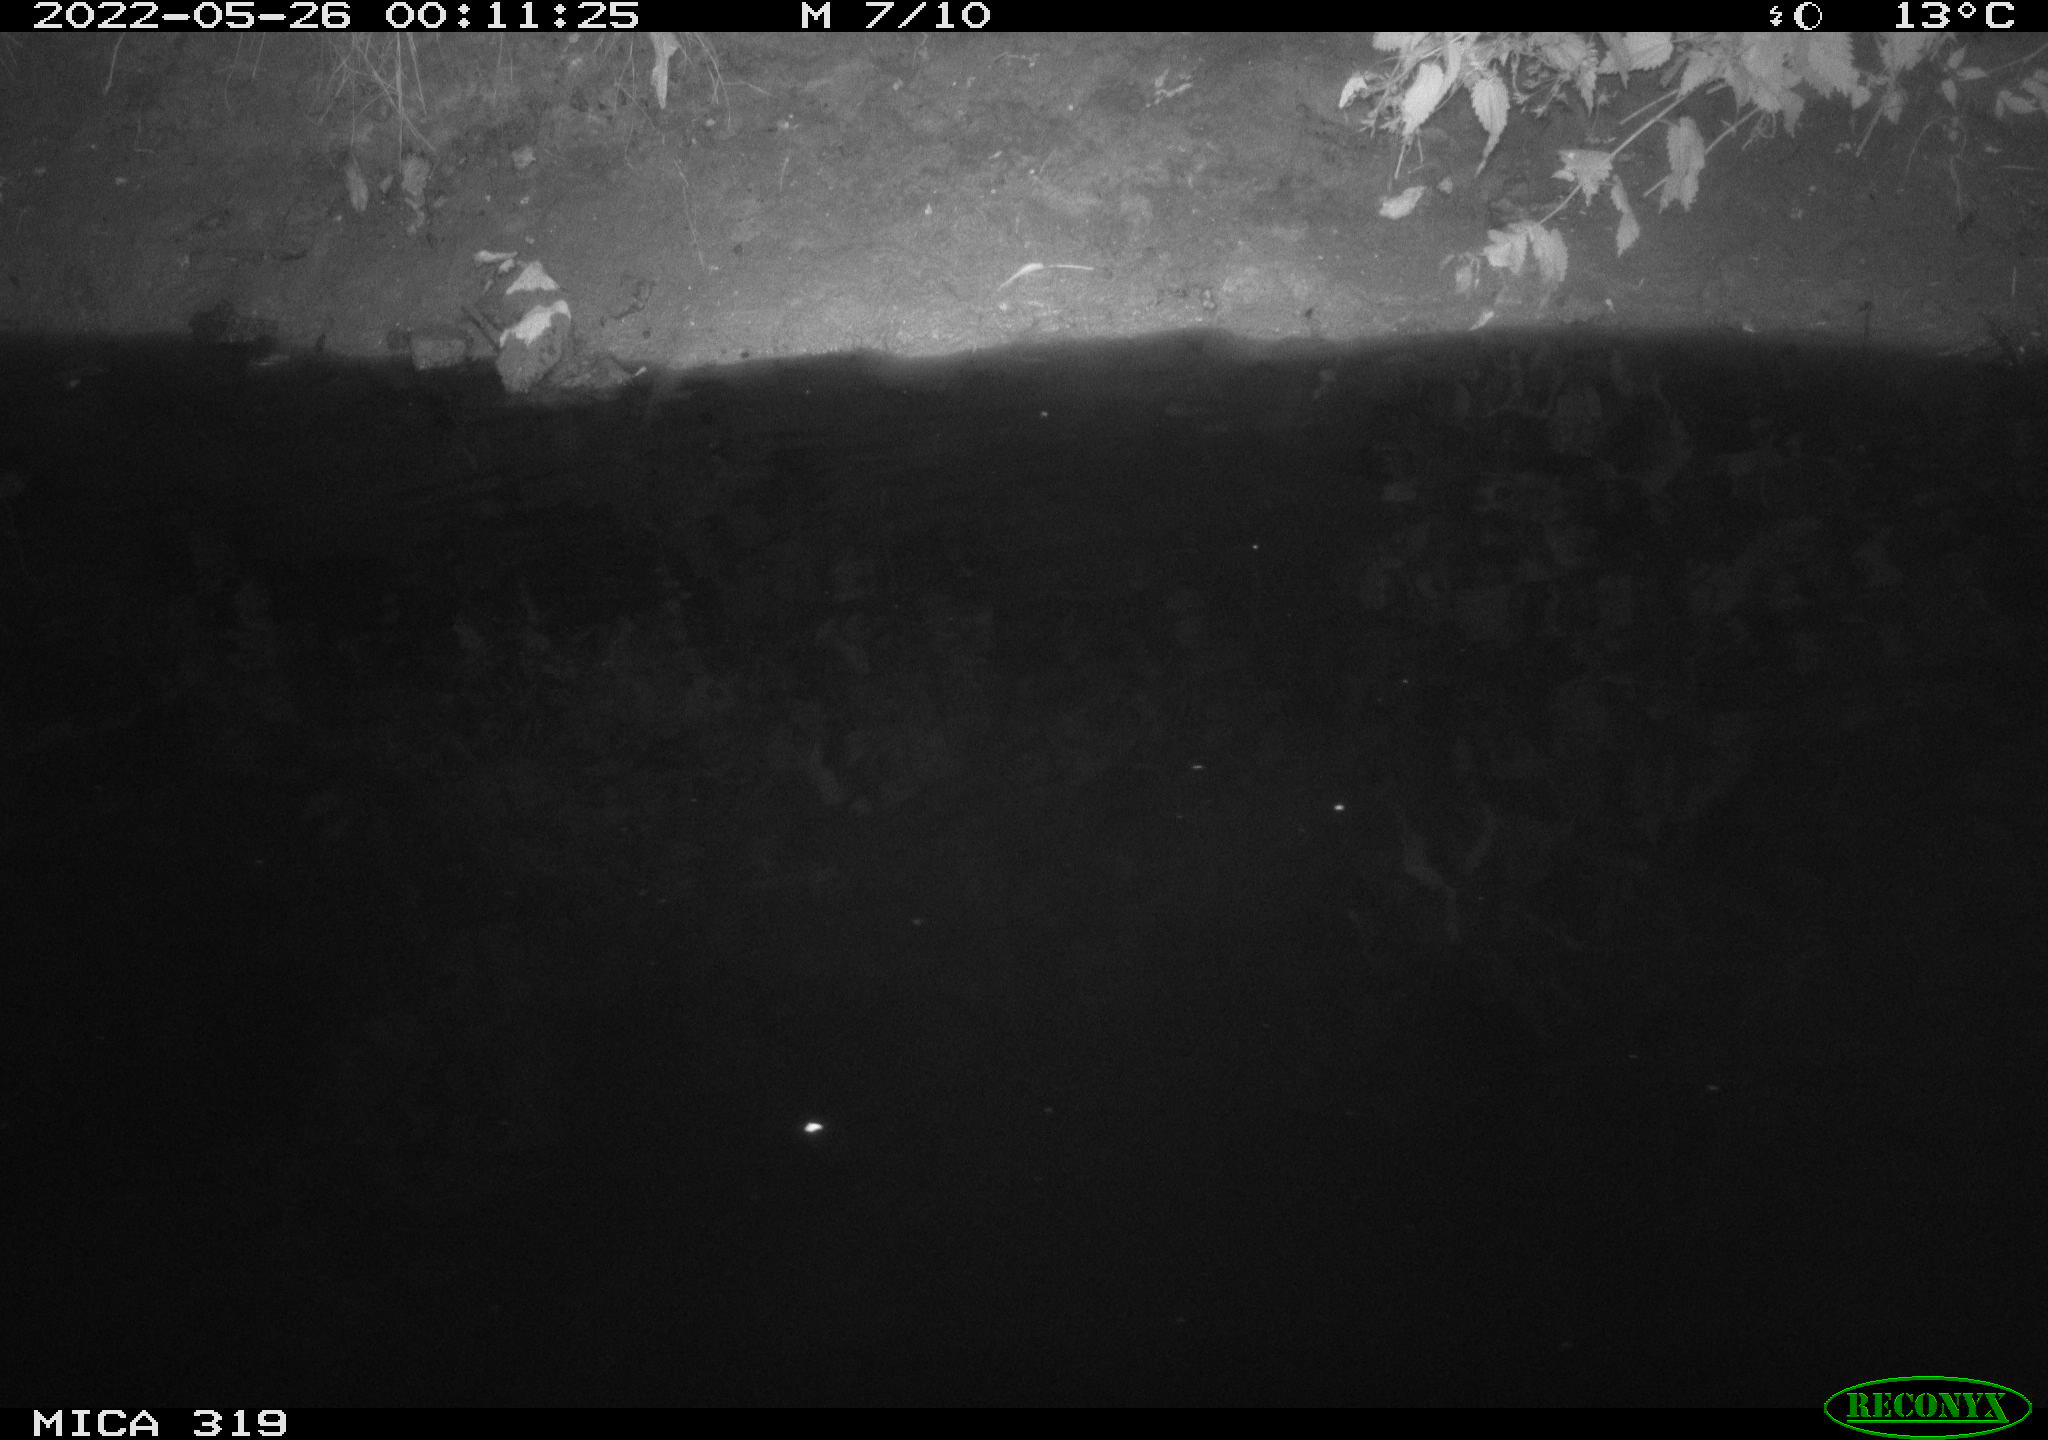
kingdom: Animalia
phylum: Chordata
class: Aves
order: Anseriformes
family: Anatidae
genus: Anas
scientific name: Anas
